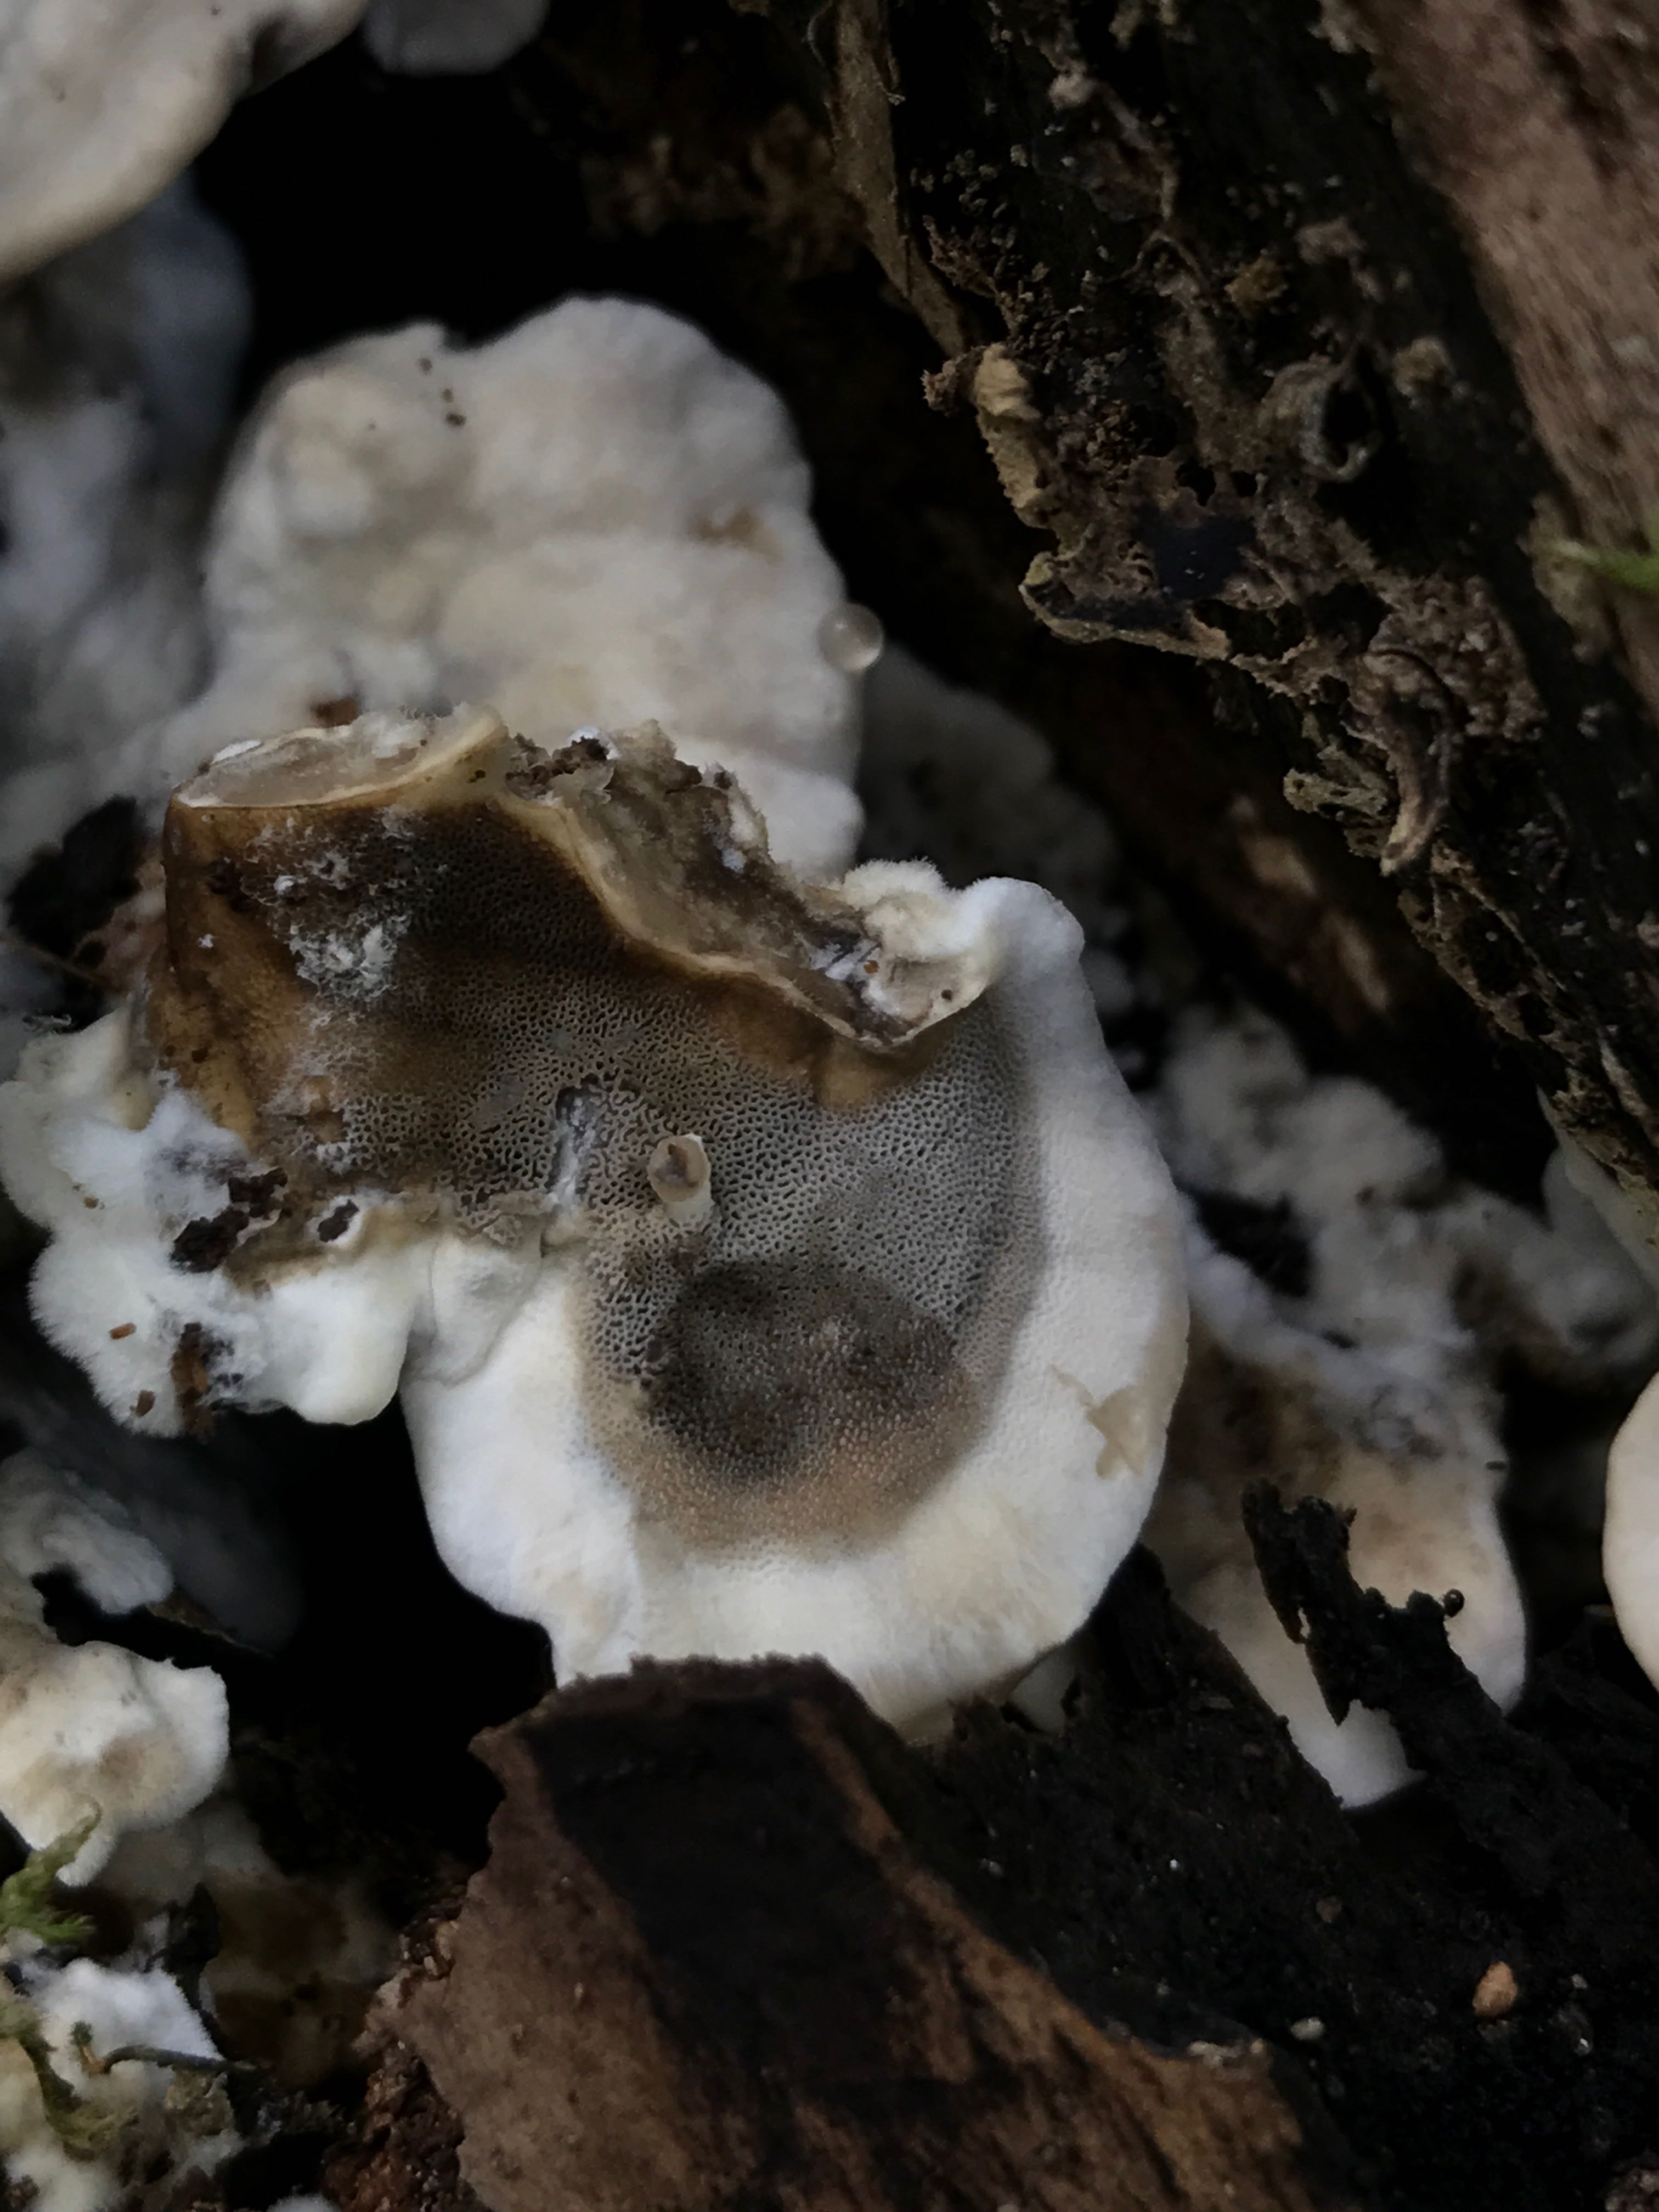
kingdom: Fungi
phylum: Basidiomycota
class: Agaricomycetes
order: Polyporales
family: Phanerochaetaceae
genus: Bjerkandera
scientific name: Bjerkandera adusta
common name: sveden sodporesvamp
